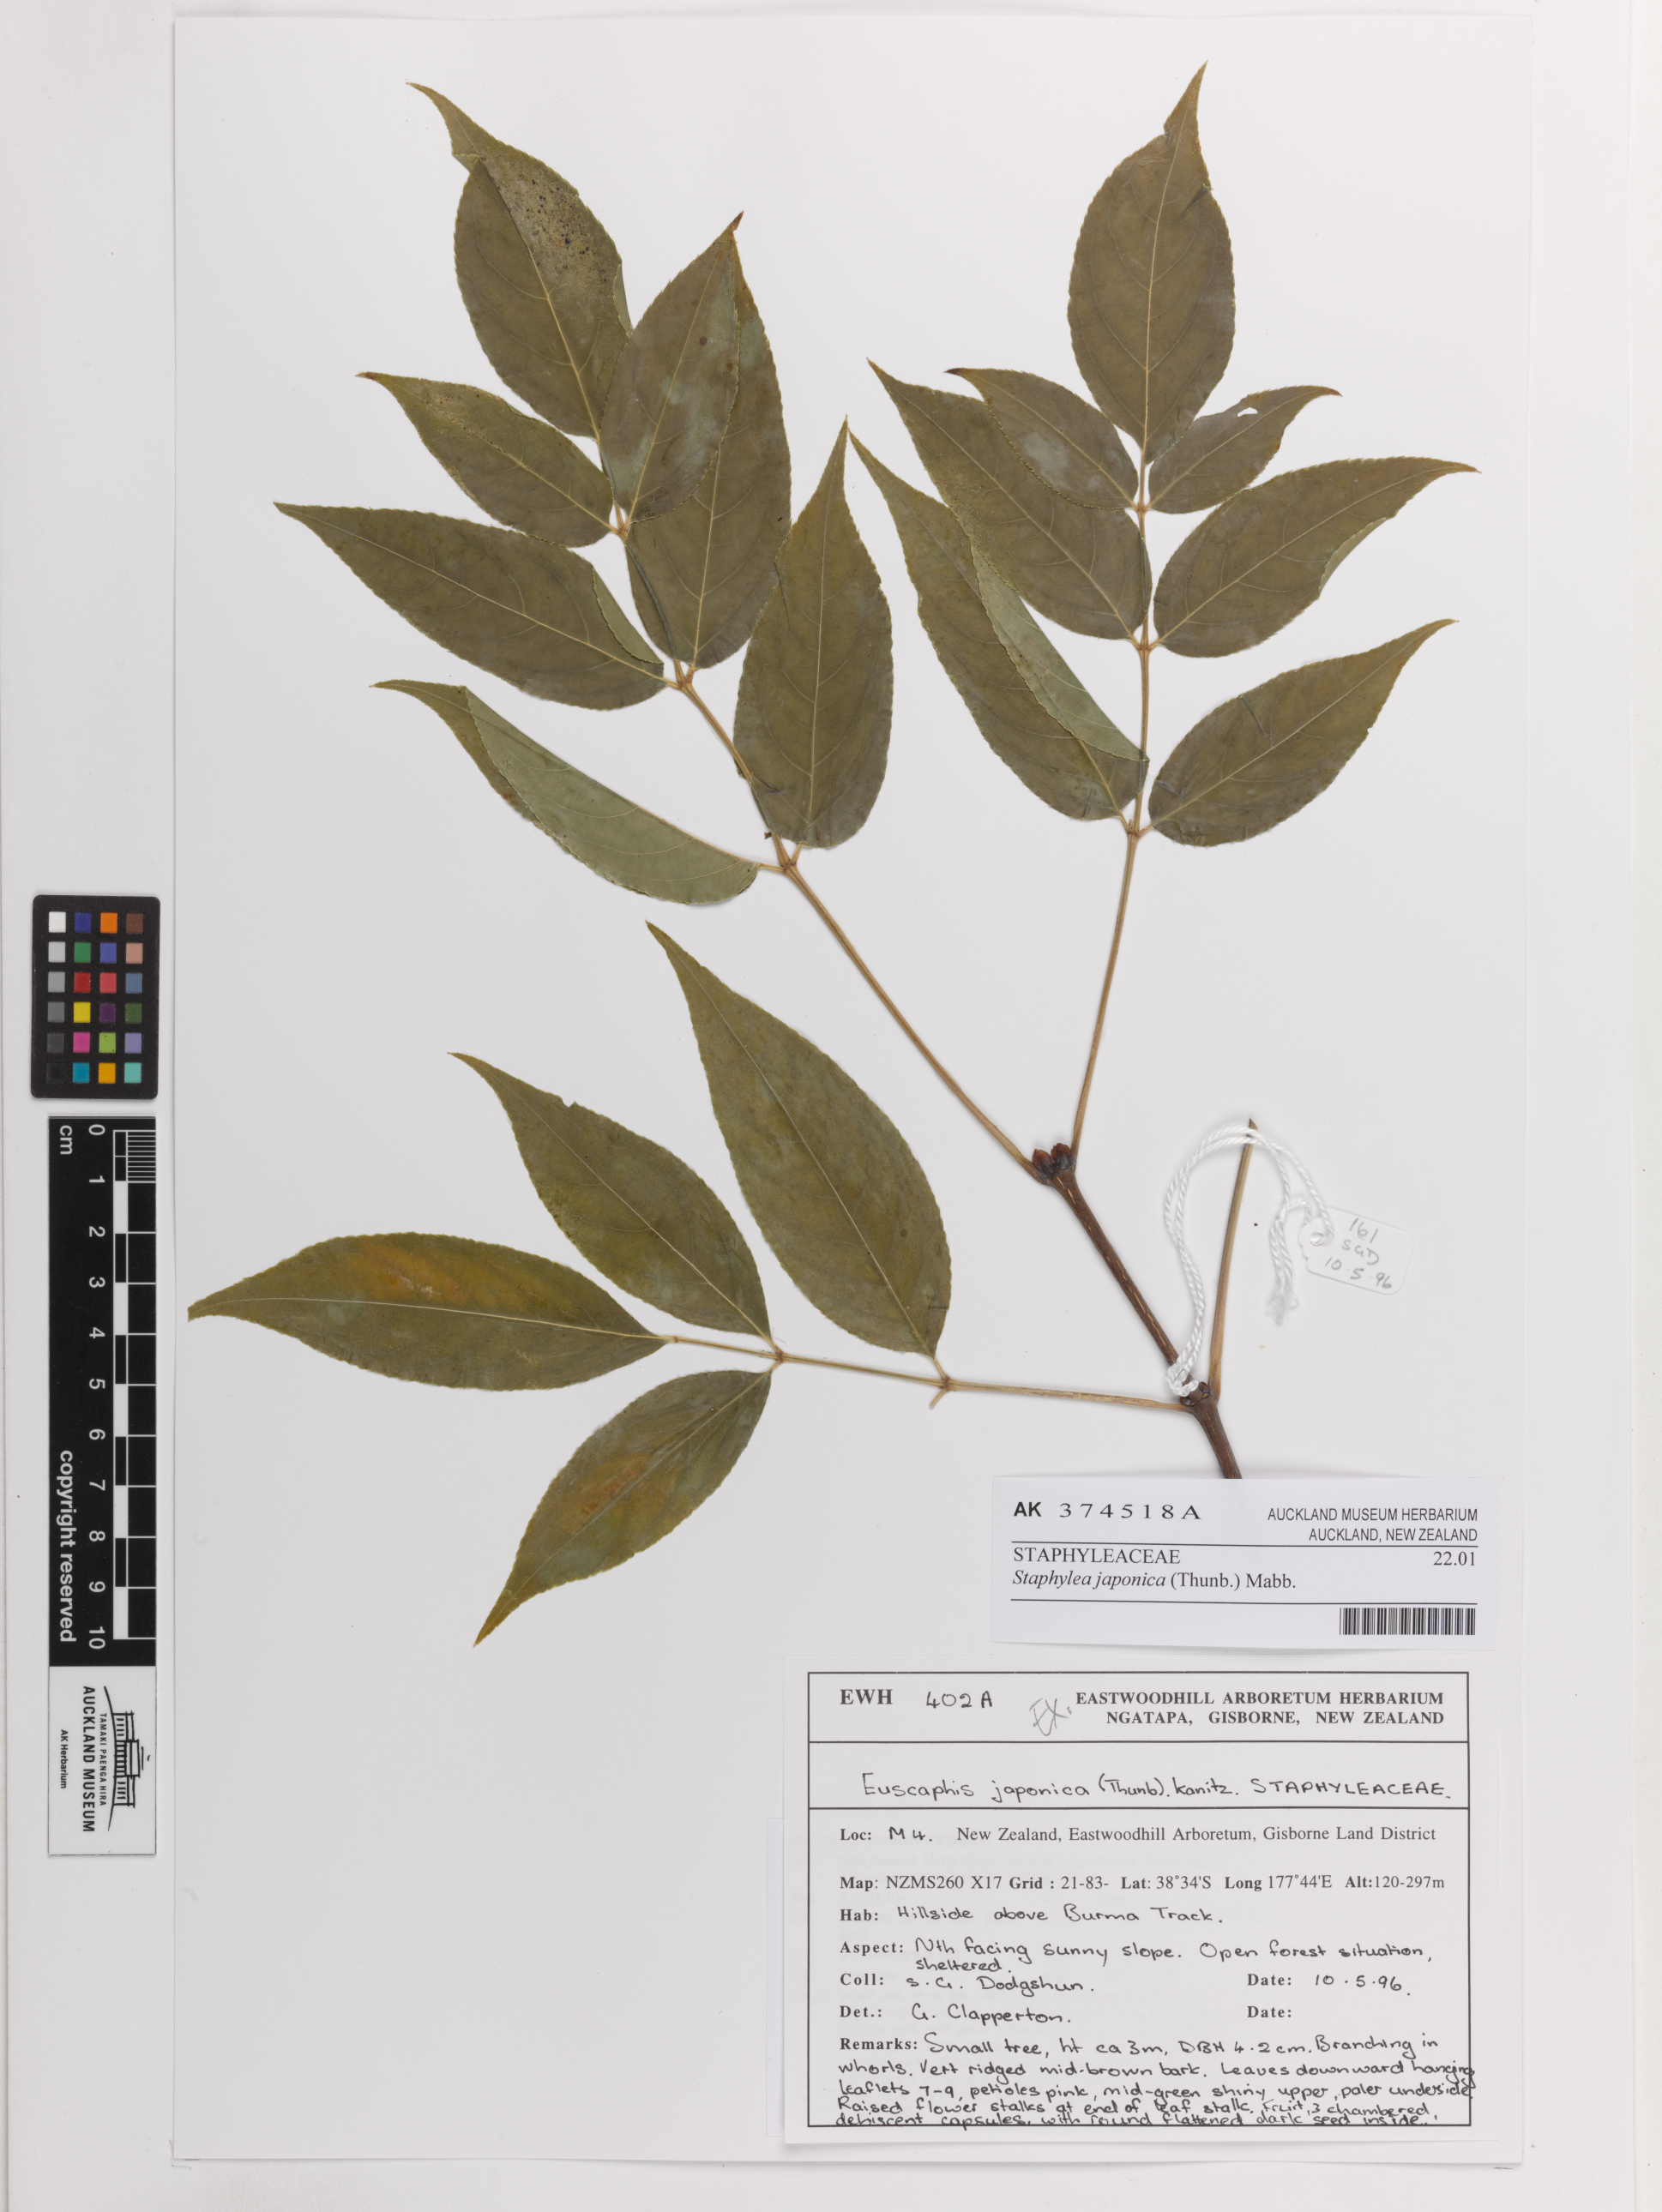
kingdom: Plantae
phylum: Tracheophyta
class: Magnoliopsida
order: Crossosomatales
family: Staphyleaceae
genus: Staphylea
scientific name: Staphylea japonica
